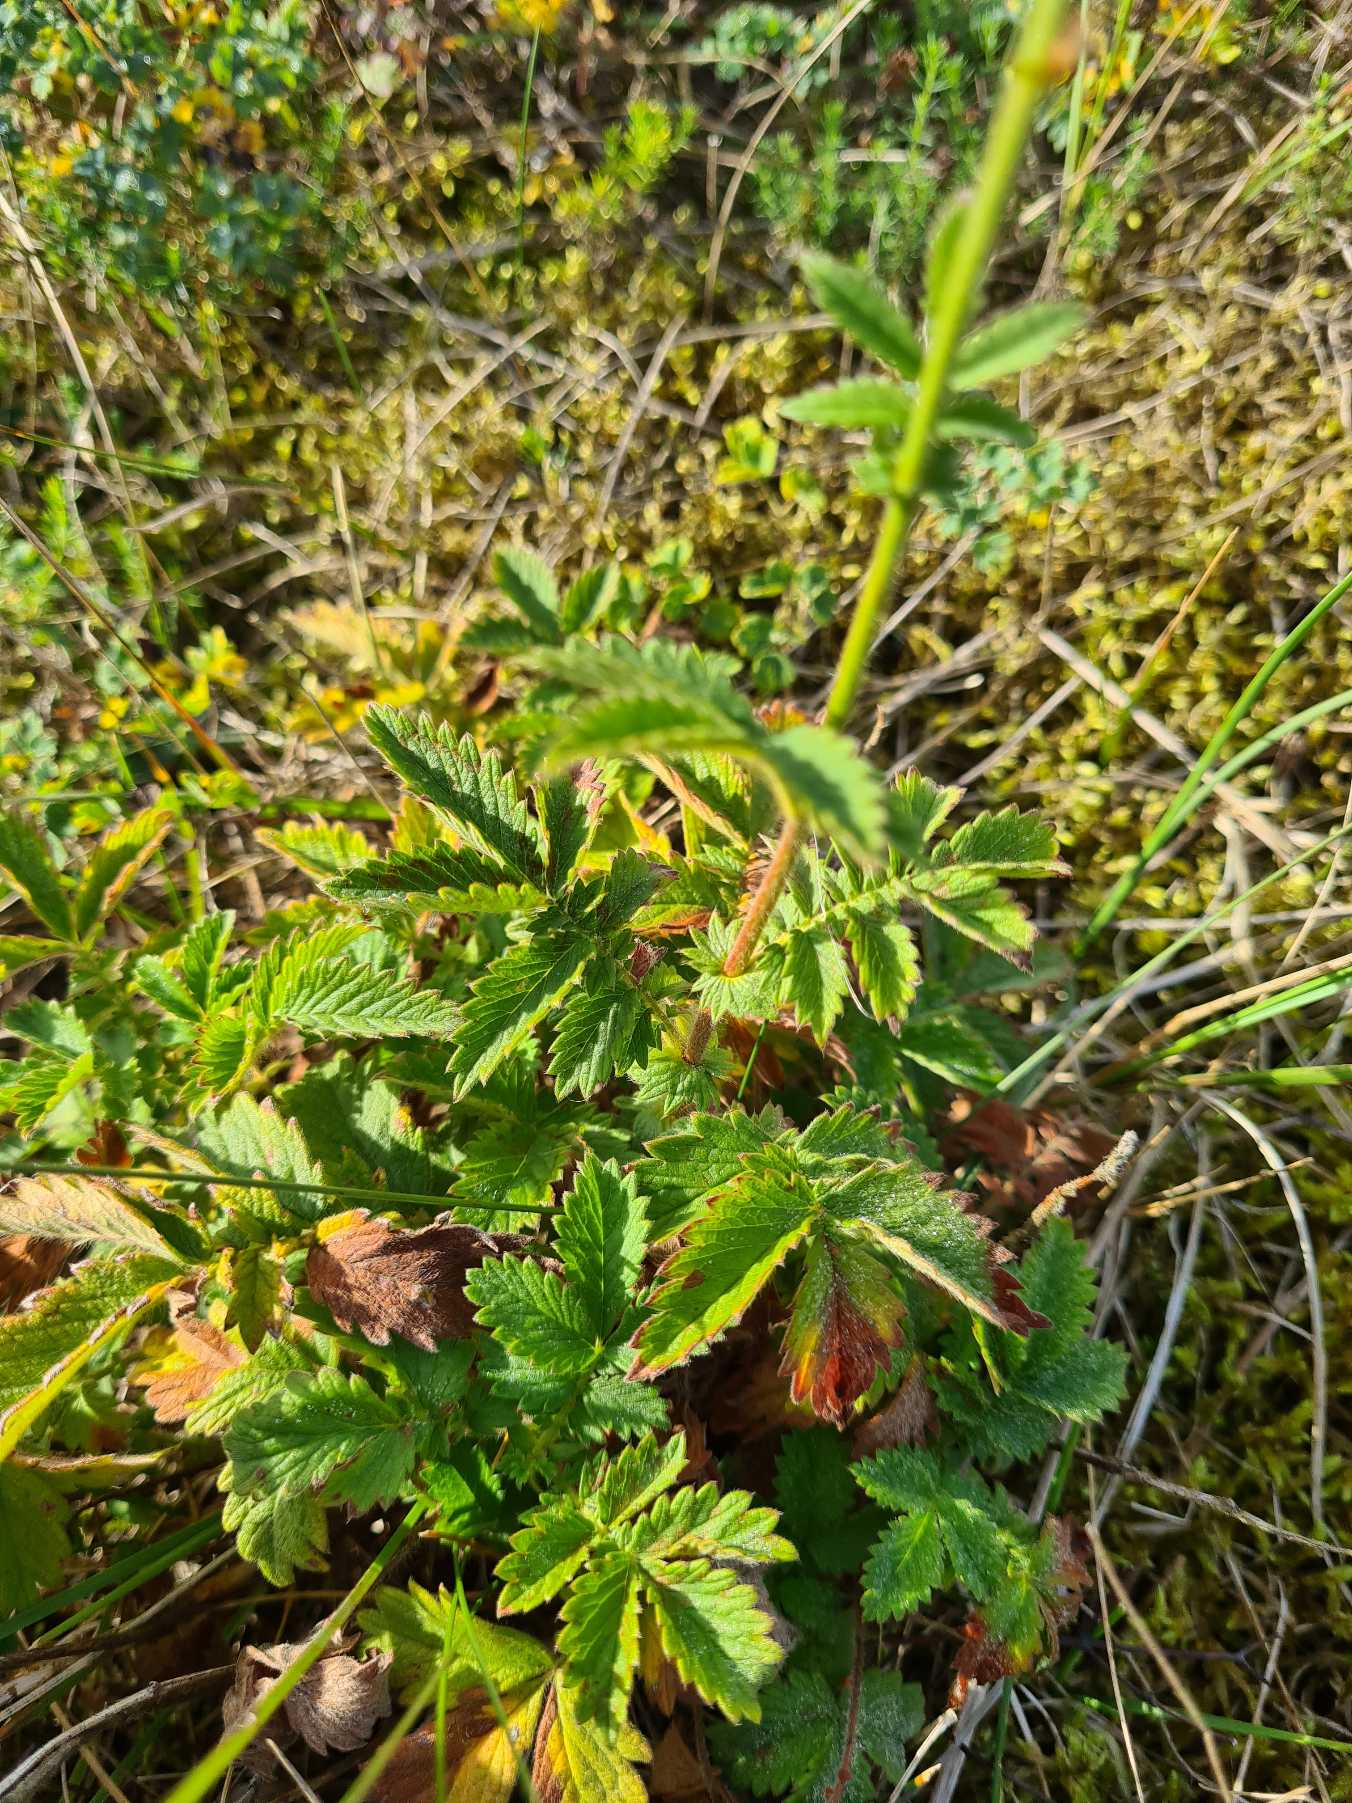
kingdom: Plantae
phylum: Tracheophyta
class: Magnoliopsida
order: Rosales
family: Rosaceae
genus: Agrimonia
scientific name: Agrimonia eupatoria
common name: Almindelig agermåne
